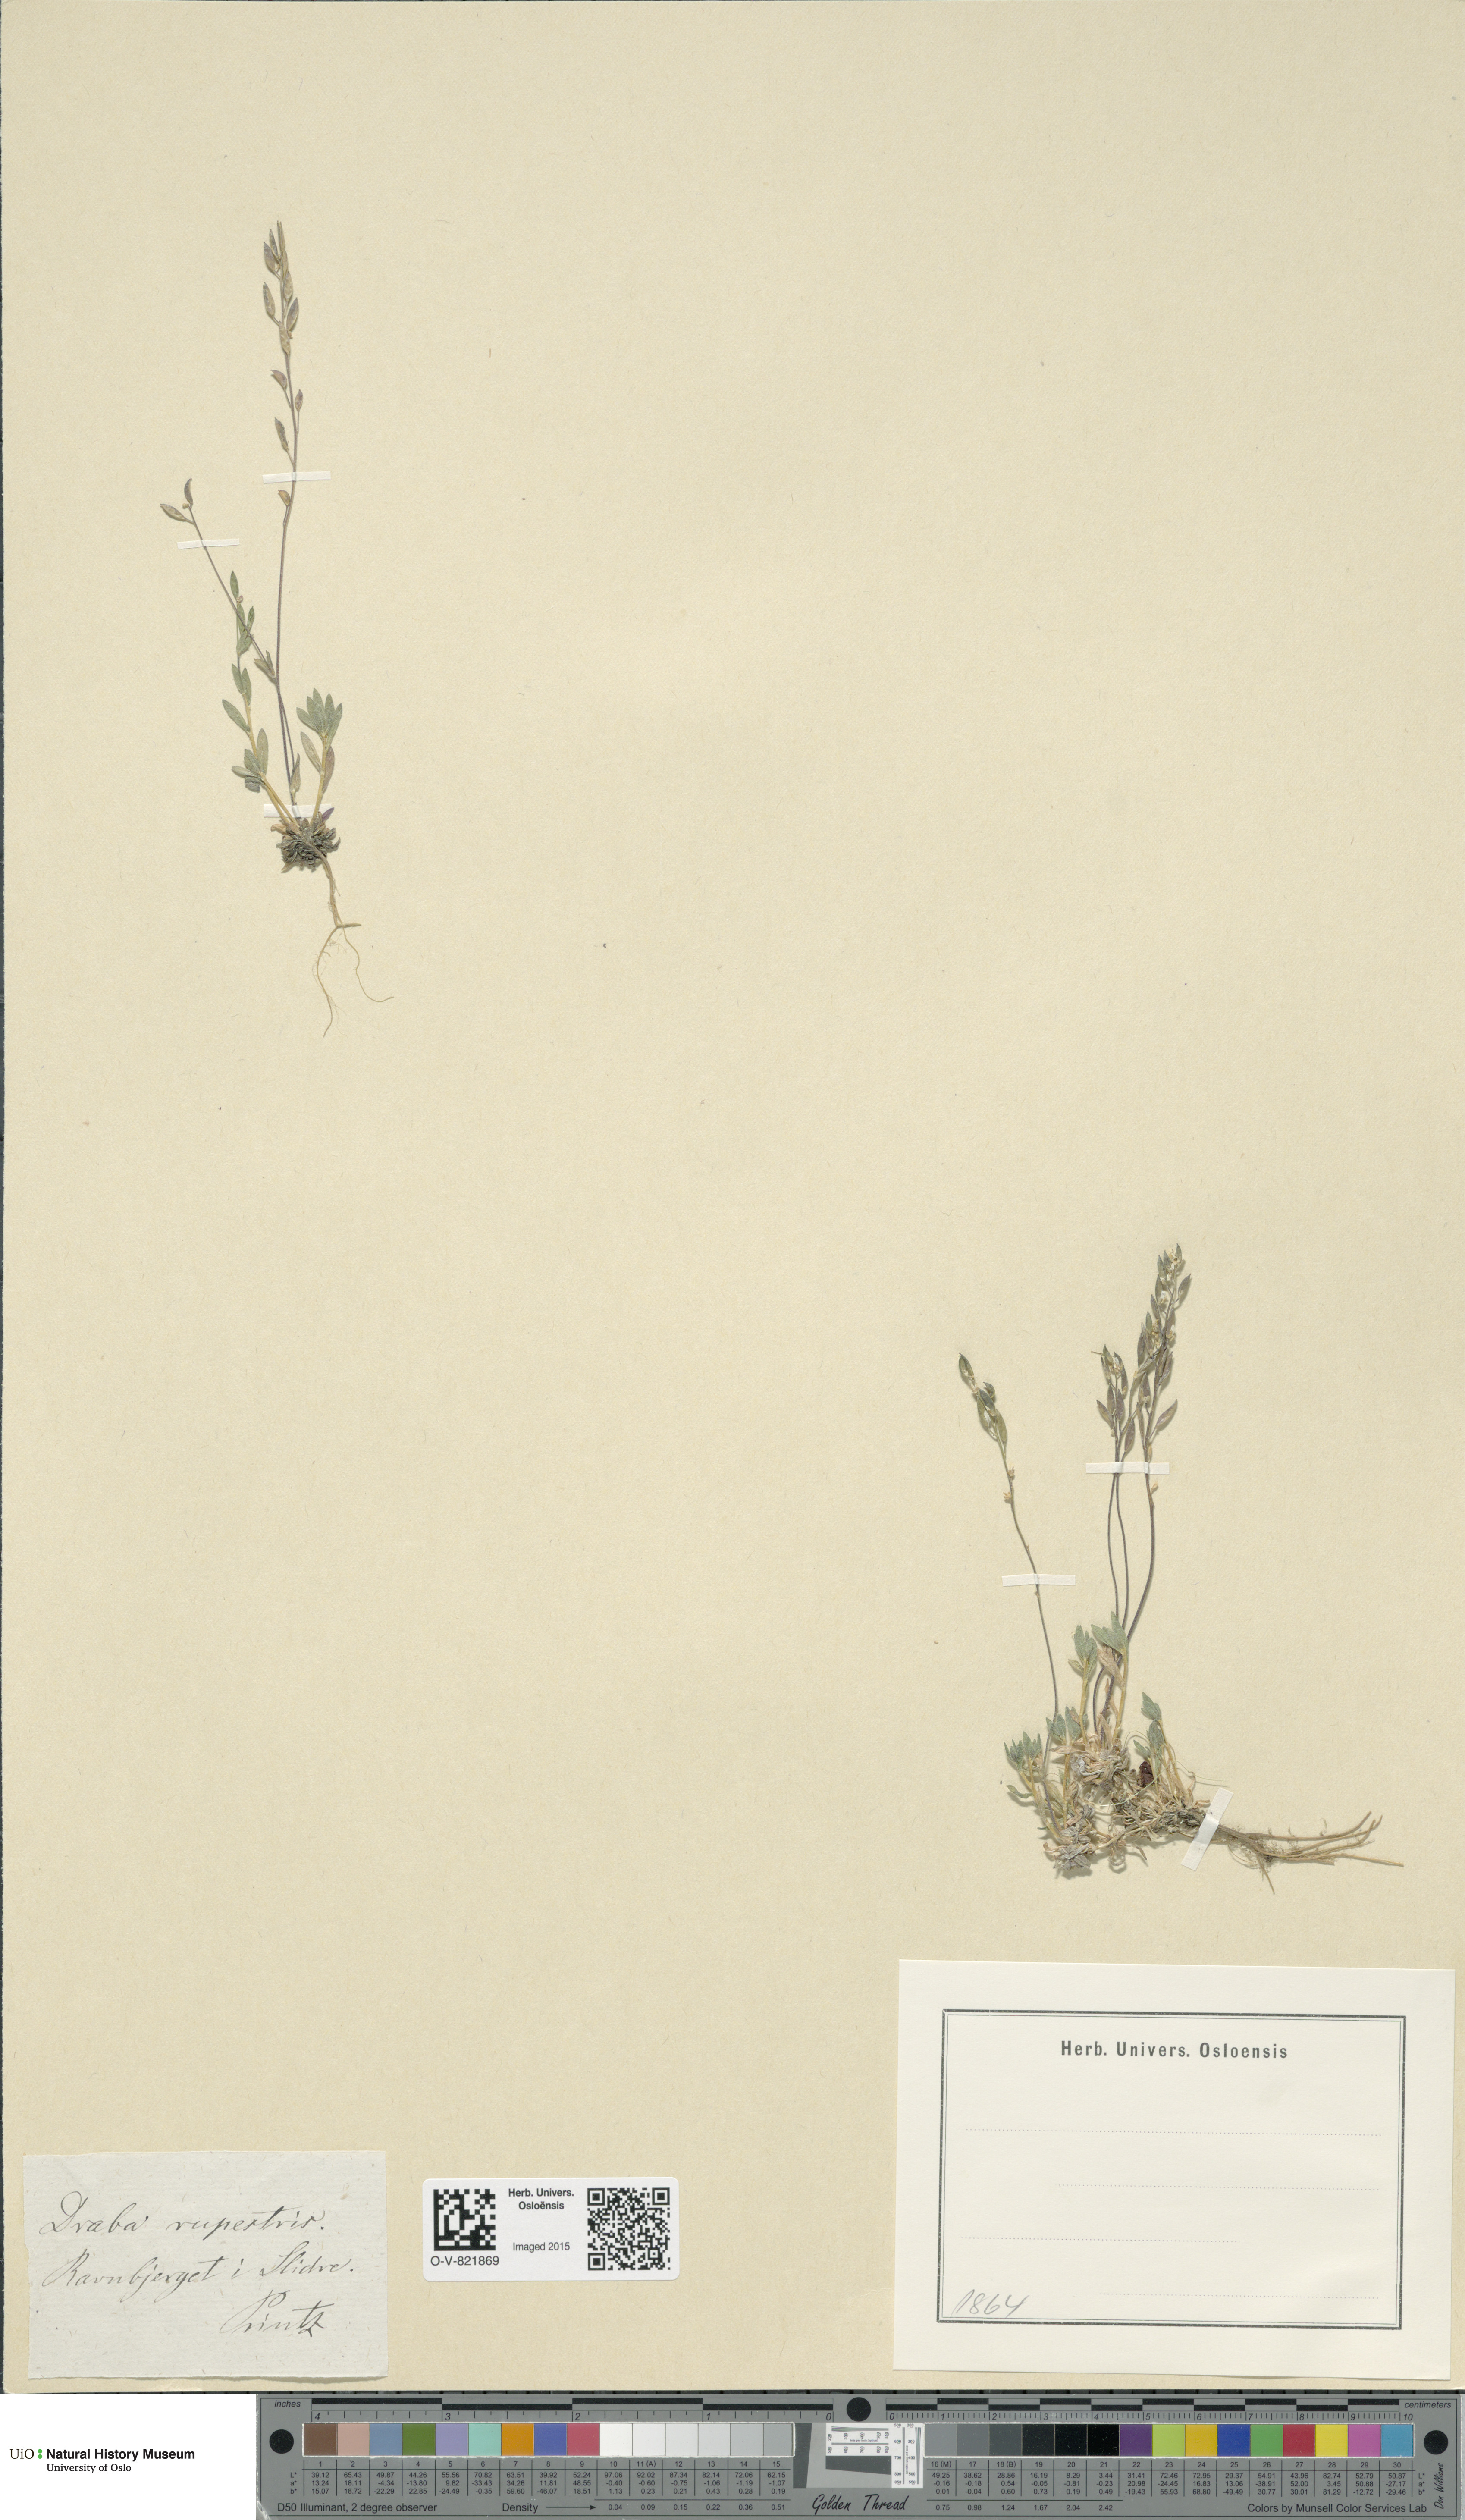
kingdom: Plantae
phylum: Tracheophyta
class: Magnoliopsida
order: Brassicales
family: Brassicaceae
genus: Draba
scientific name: Draba norvegica
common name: Rock whitlowgrass
